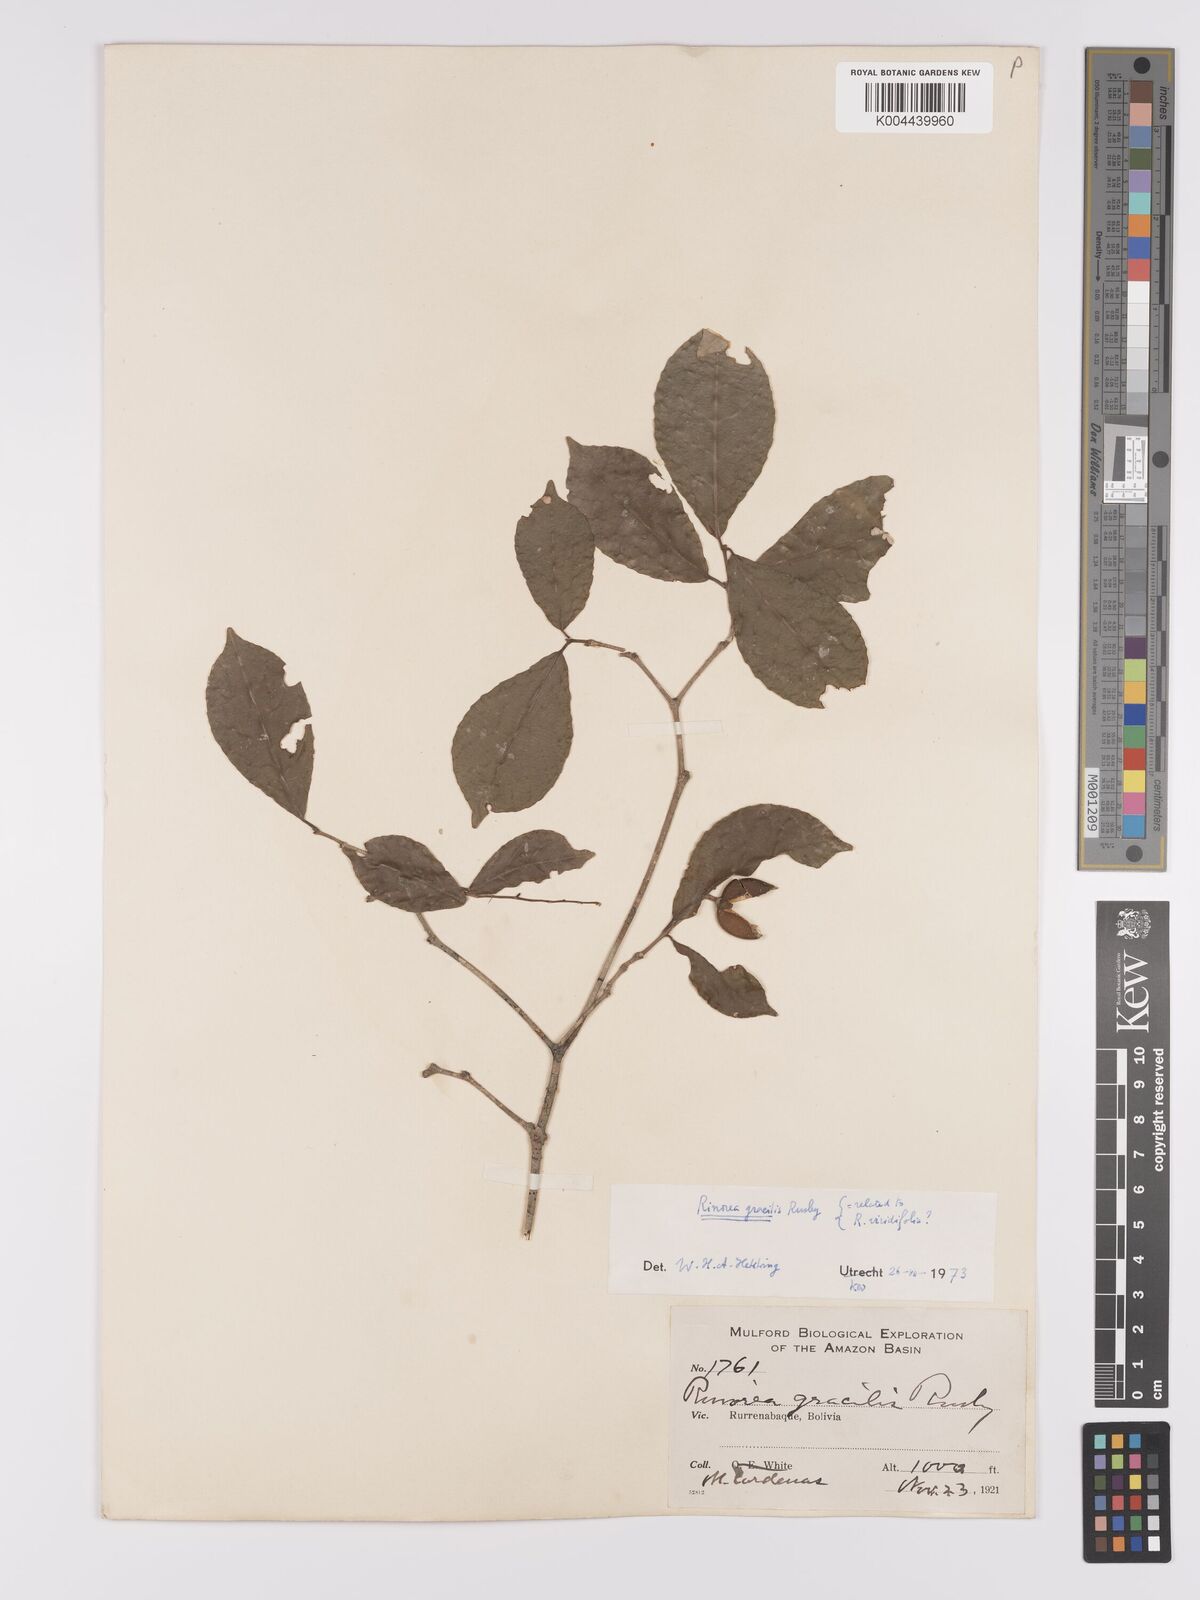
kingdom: Plantae
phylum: Tracheophyta
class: Magnoliopsida
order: Malpighiales
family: Violaceae
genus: Rinorea
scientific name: Rinorea viridifolia
